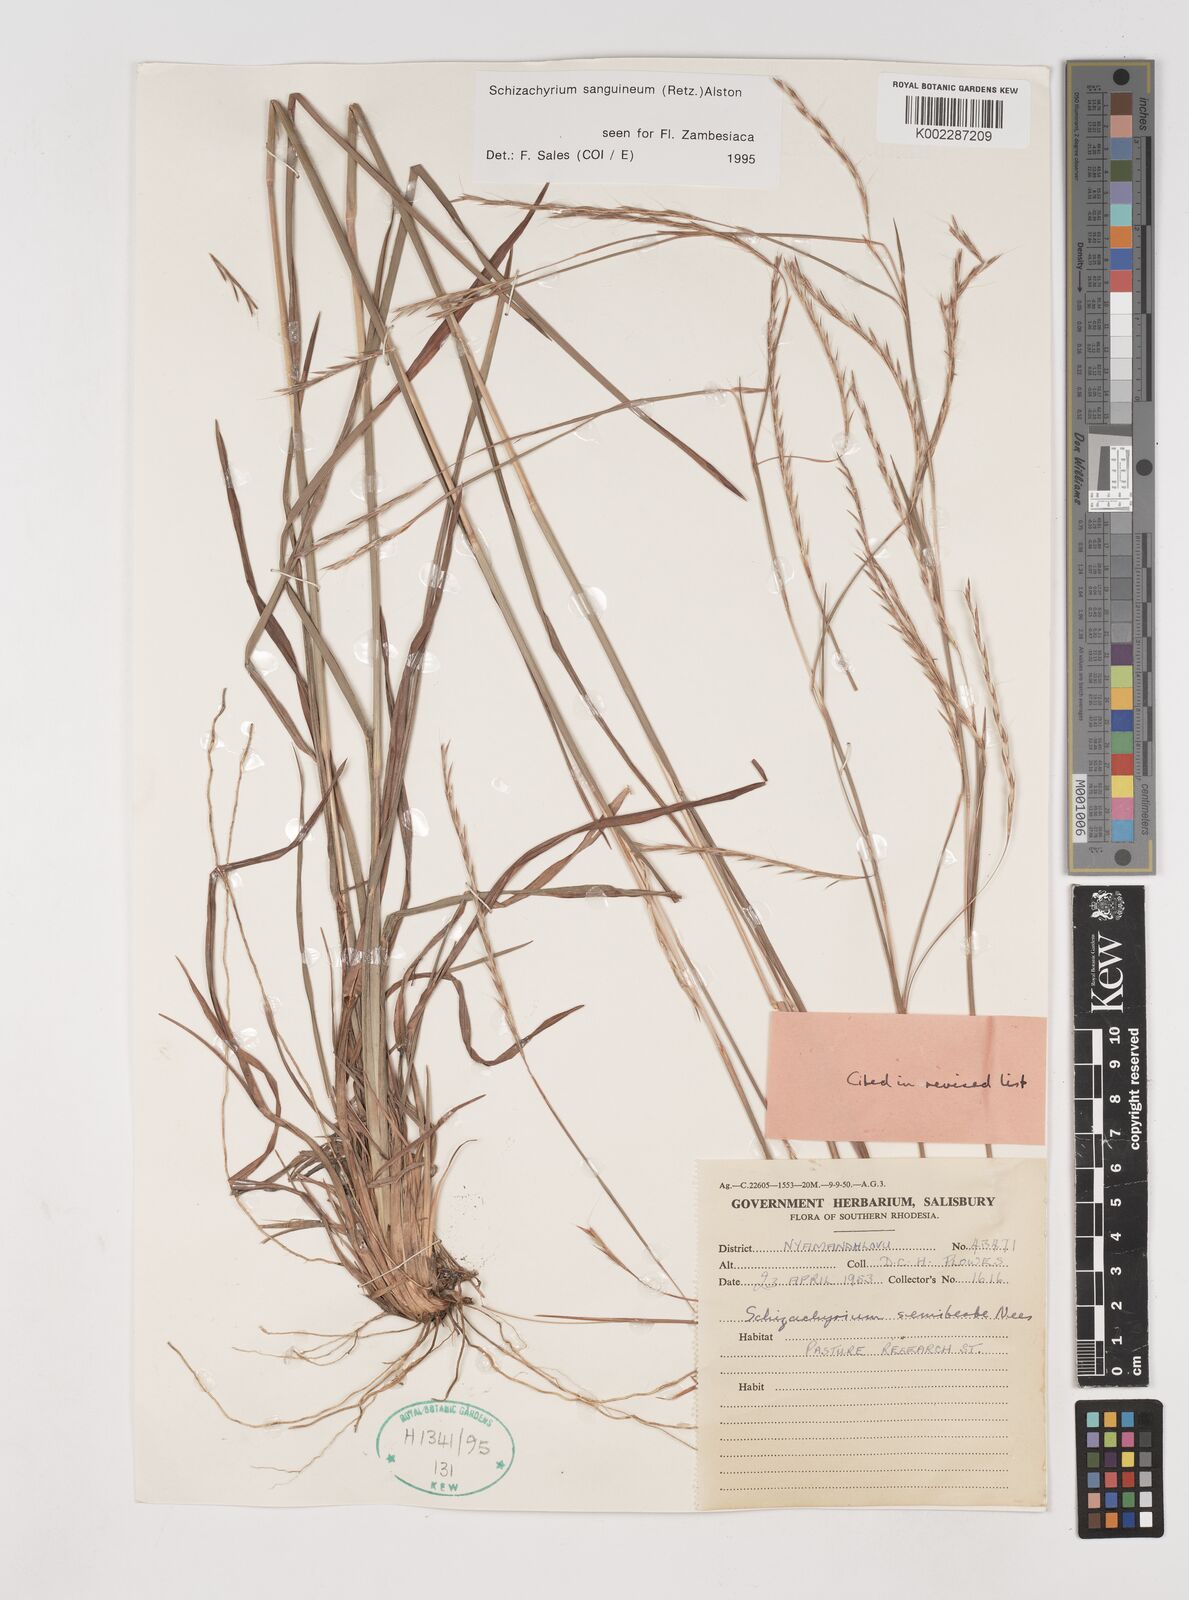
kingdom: Plantae
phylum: Tracheophyta
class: Liliopsida
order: Poales
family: Poaceae
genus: Schizachyrium
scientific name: Schizachyrium sanguineum
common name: Crimson bluestem
